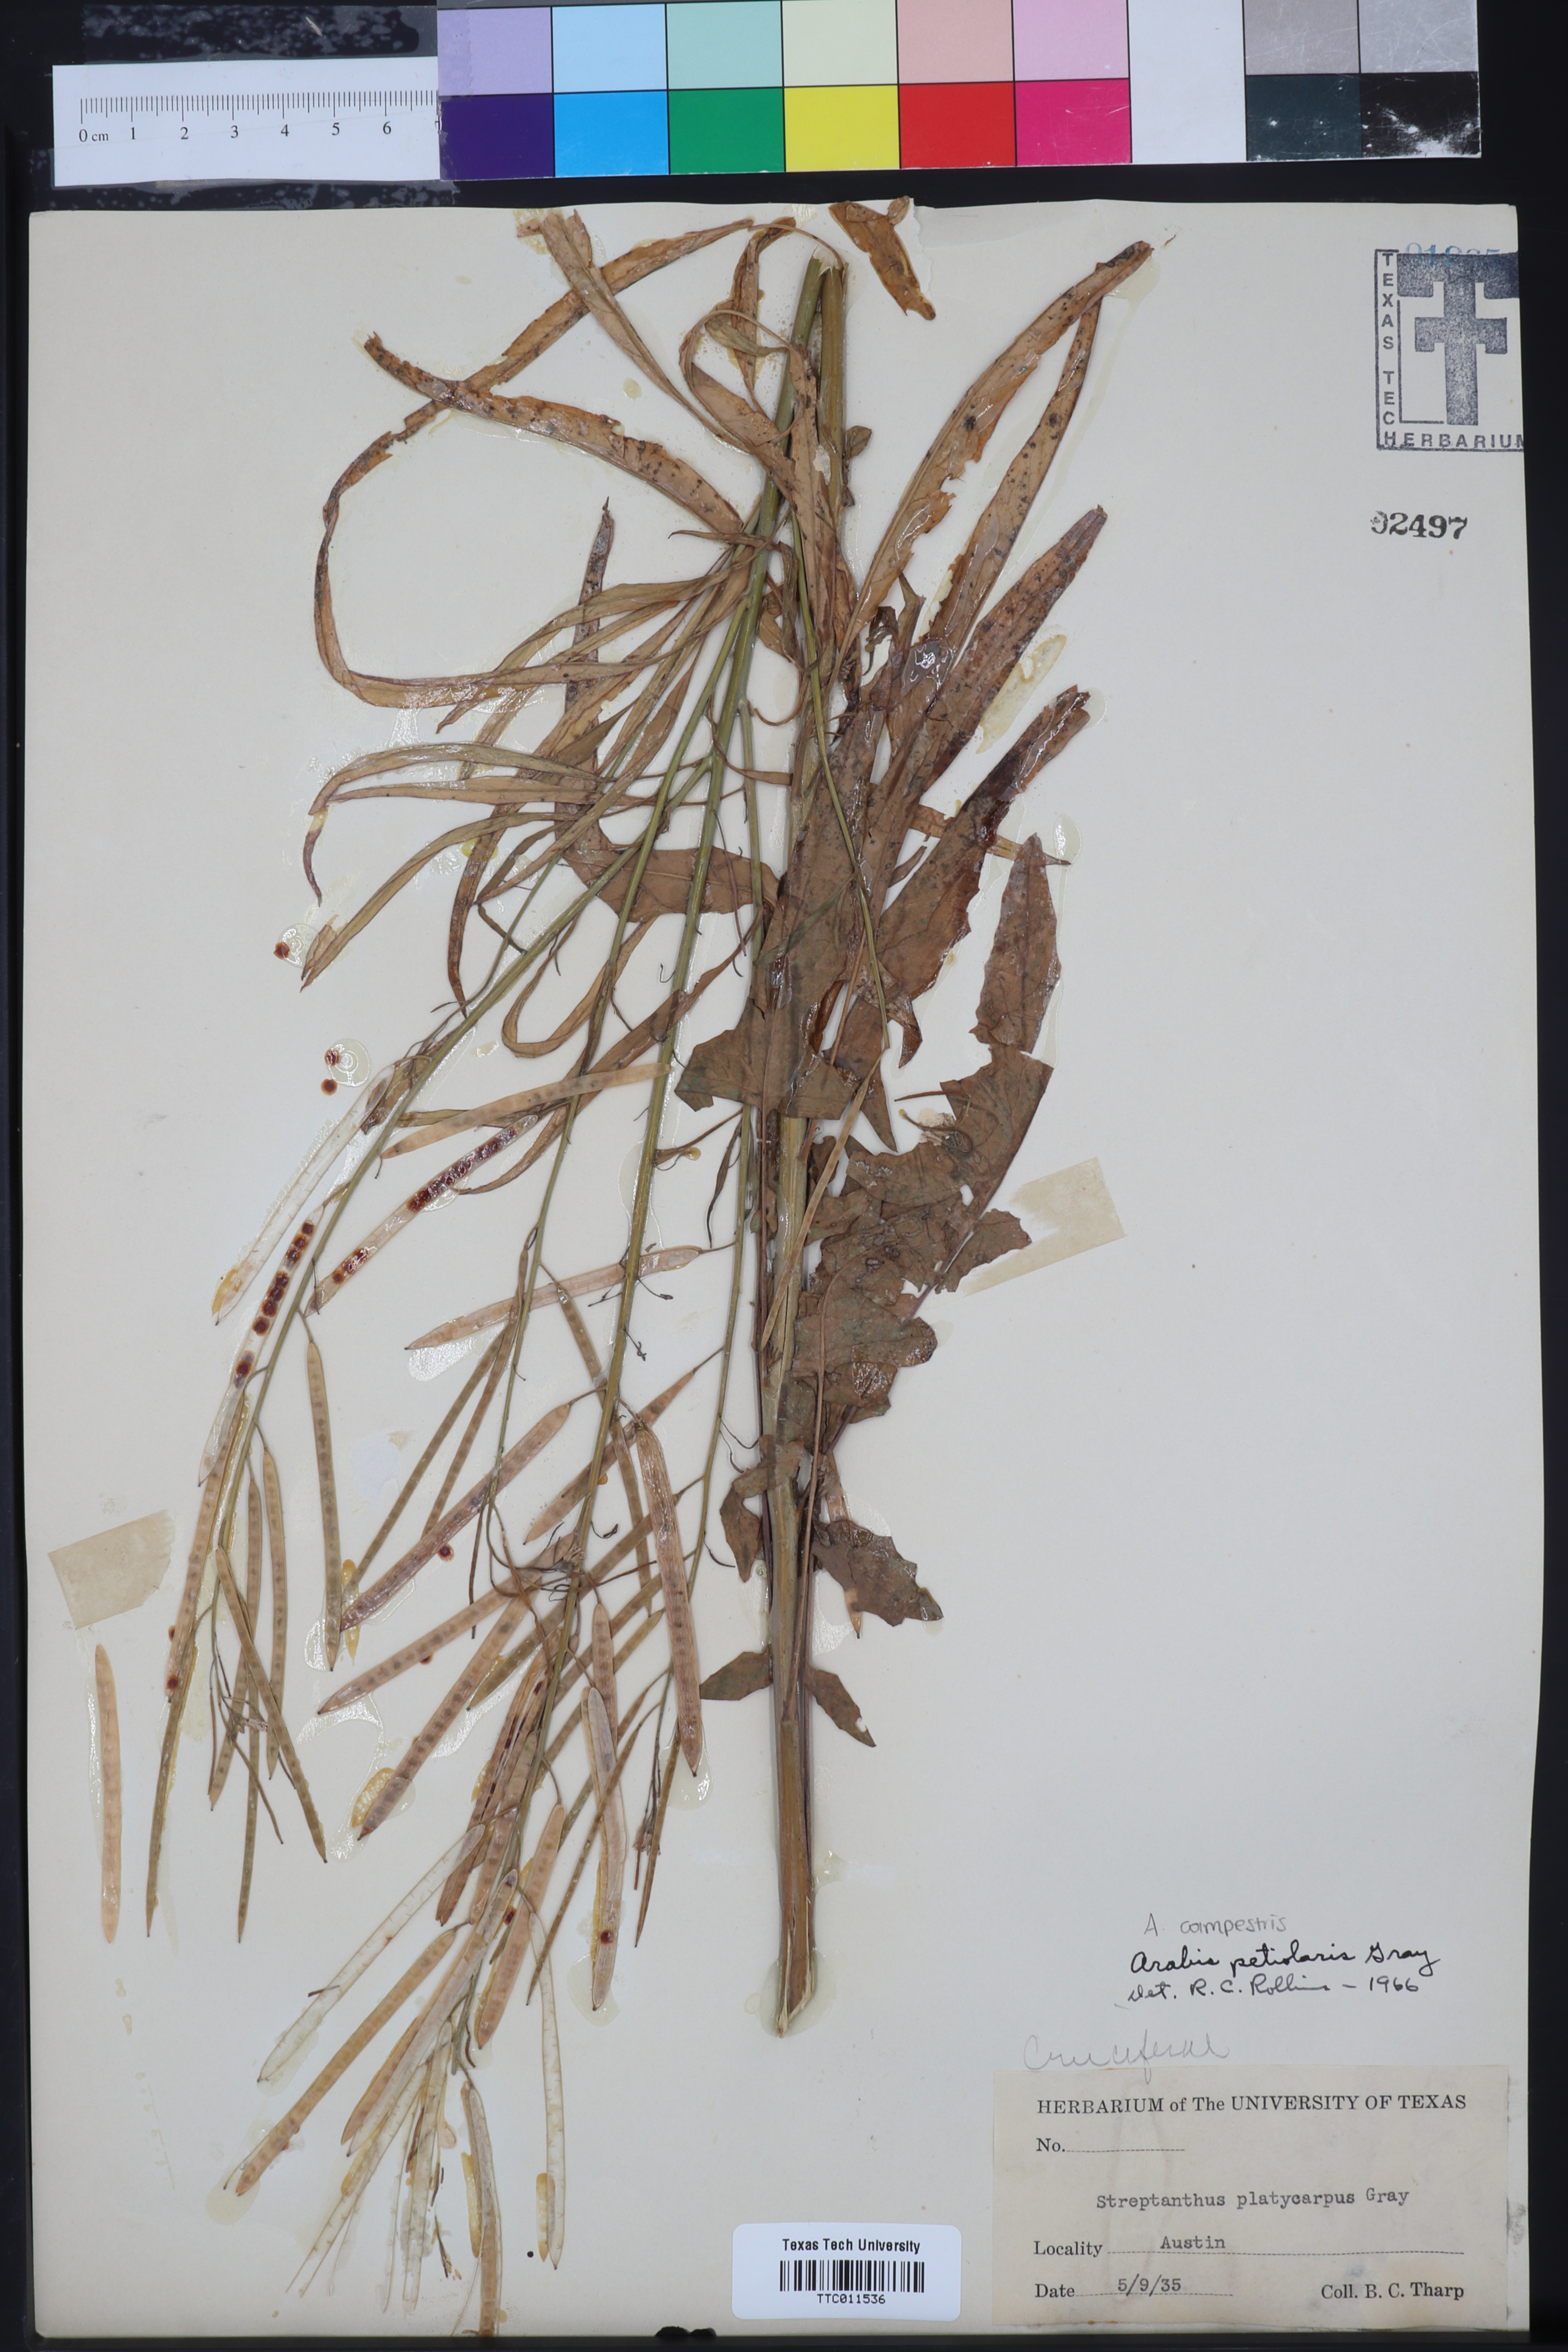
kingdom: Plantae
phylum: Tracheophyta
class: Magnoliopsida
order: Brassicales
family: Brassicaceae
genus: Streptanthus
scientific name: Streptanthus petiolaris
